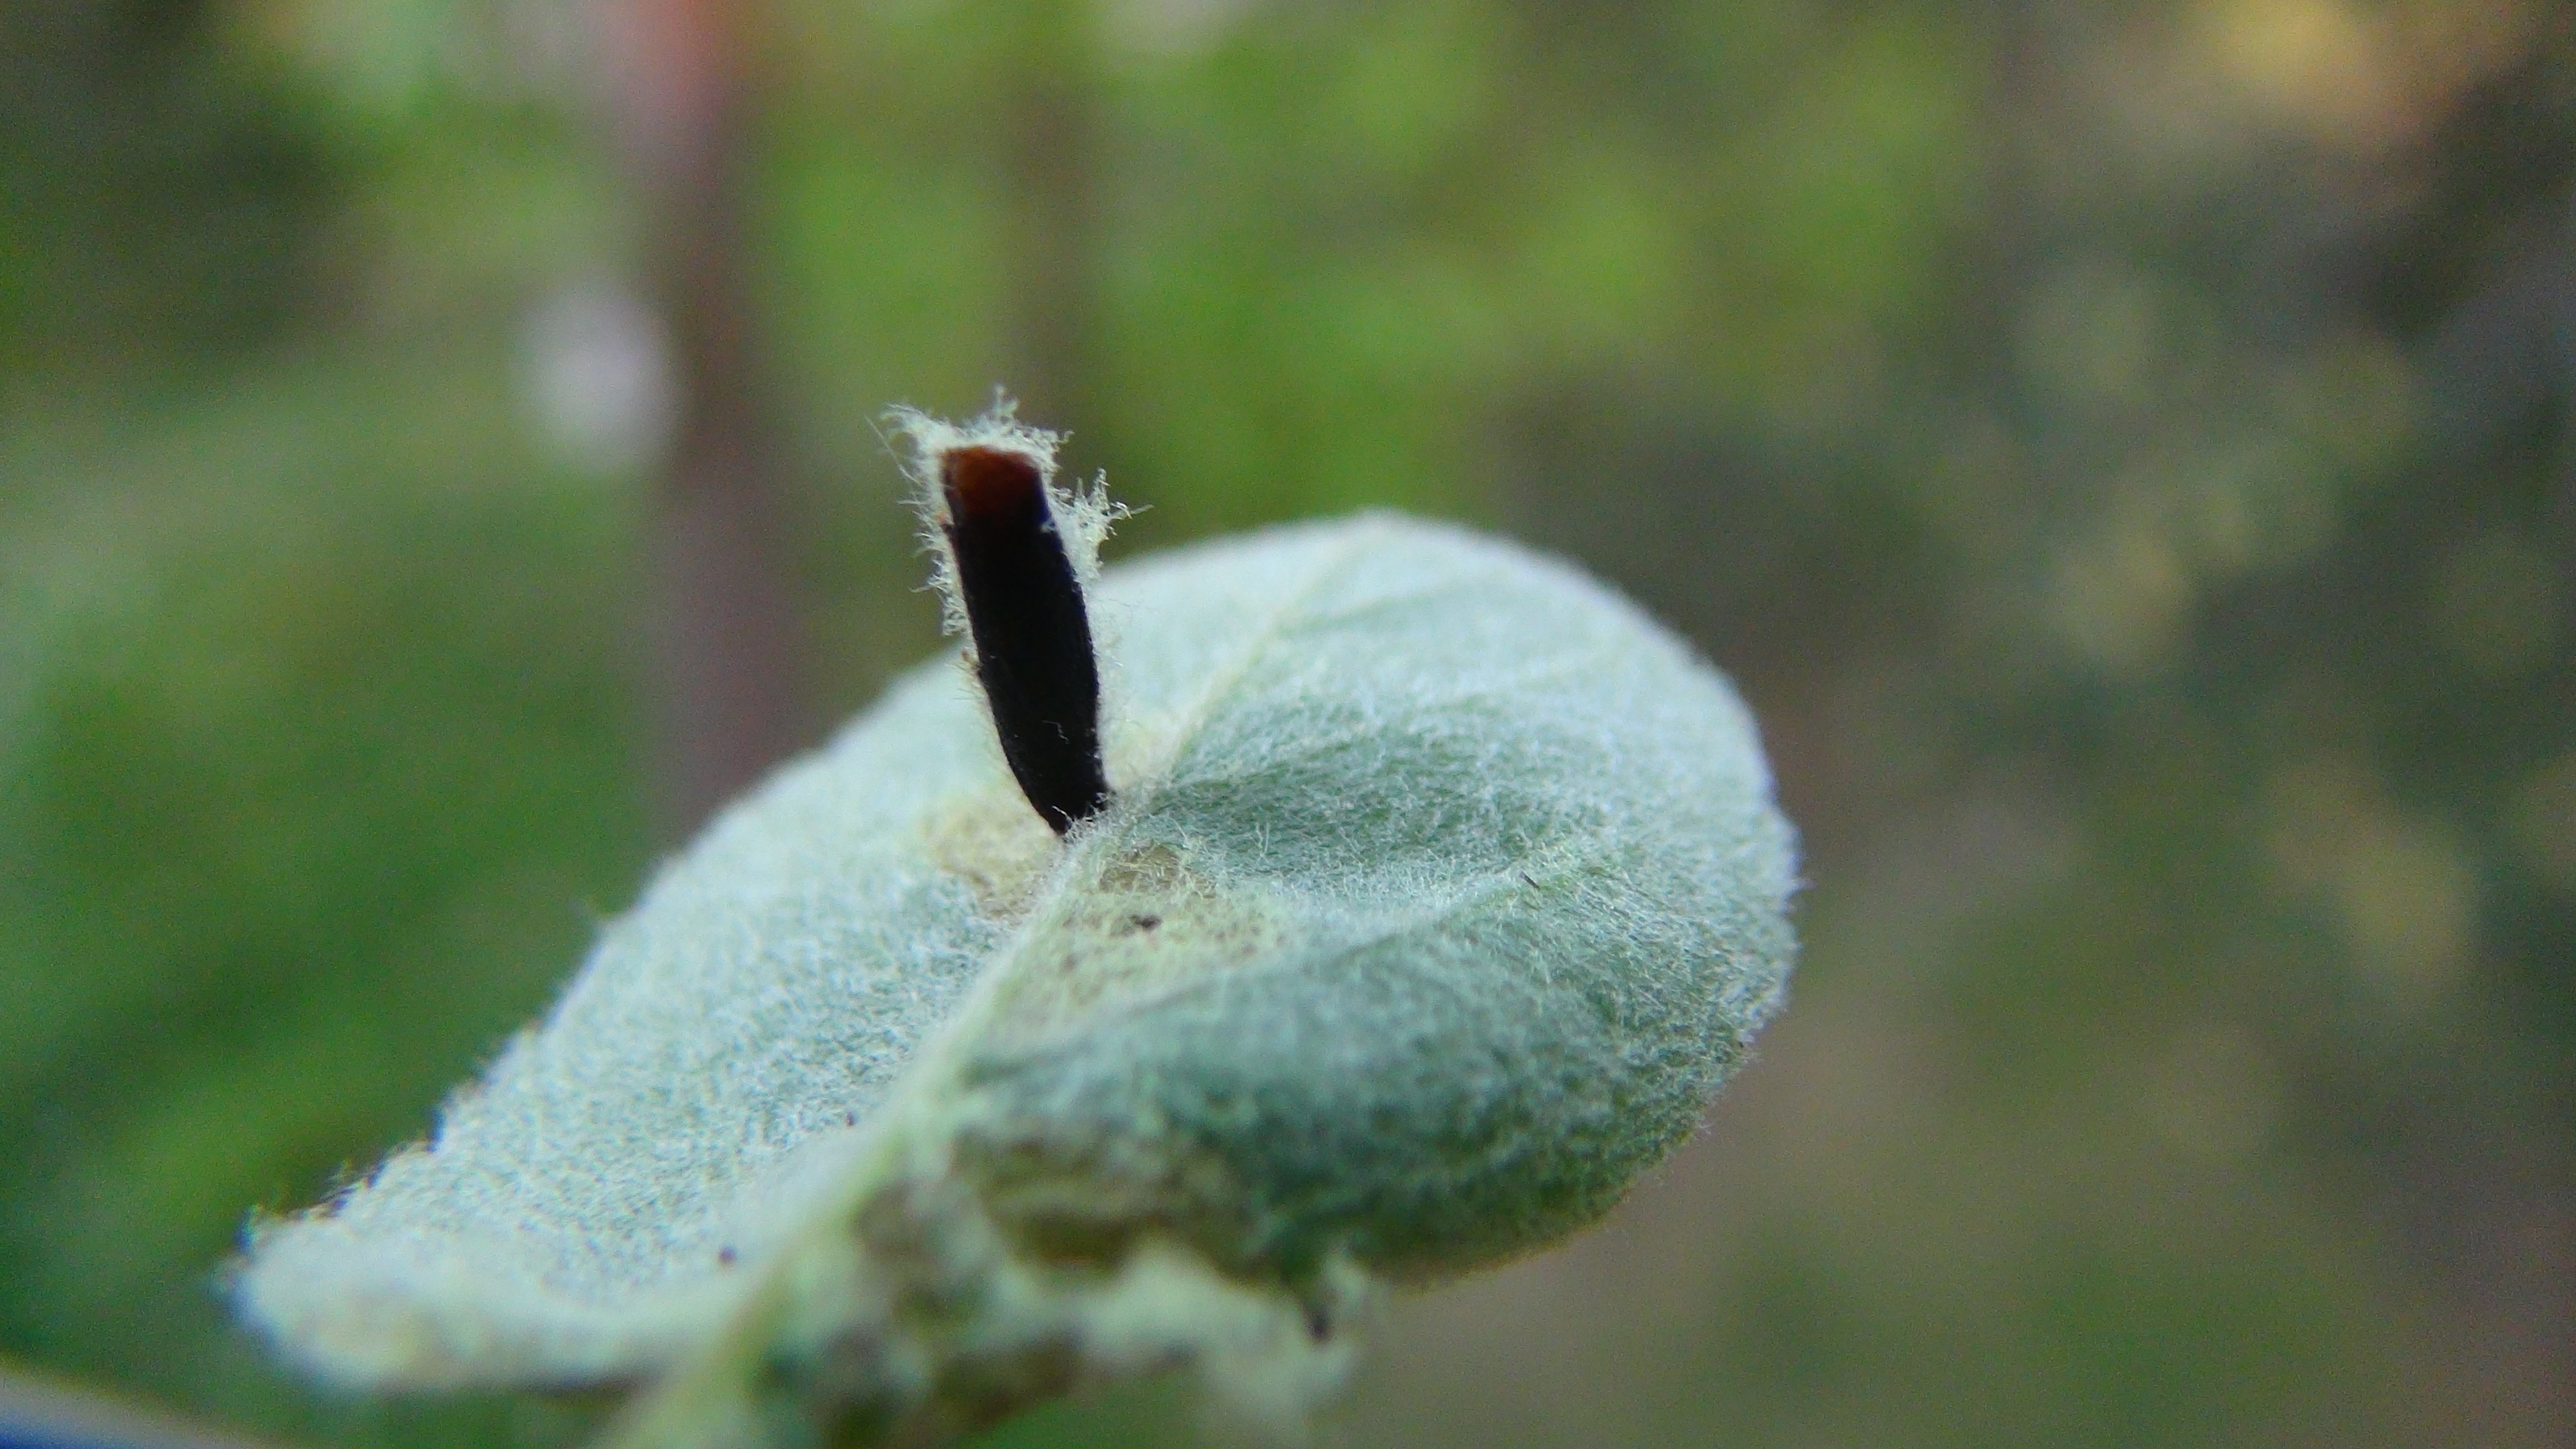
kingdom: Animalia
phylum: Arthropoda
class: Insecta
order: Lepidoptera
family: Coleophoridae
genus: Coleophora
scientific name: Coleophora spinella
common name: Apple & plum case-bearer
